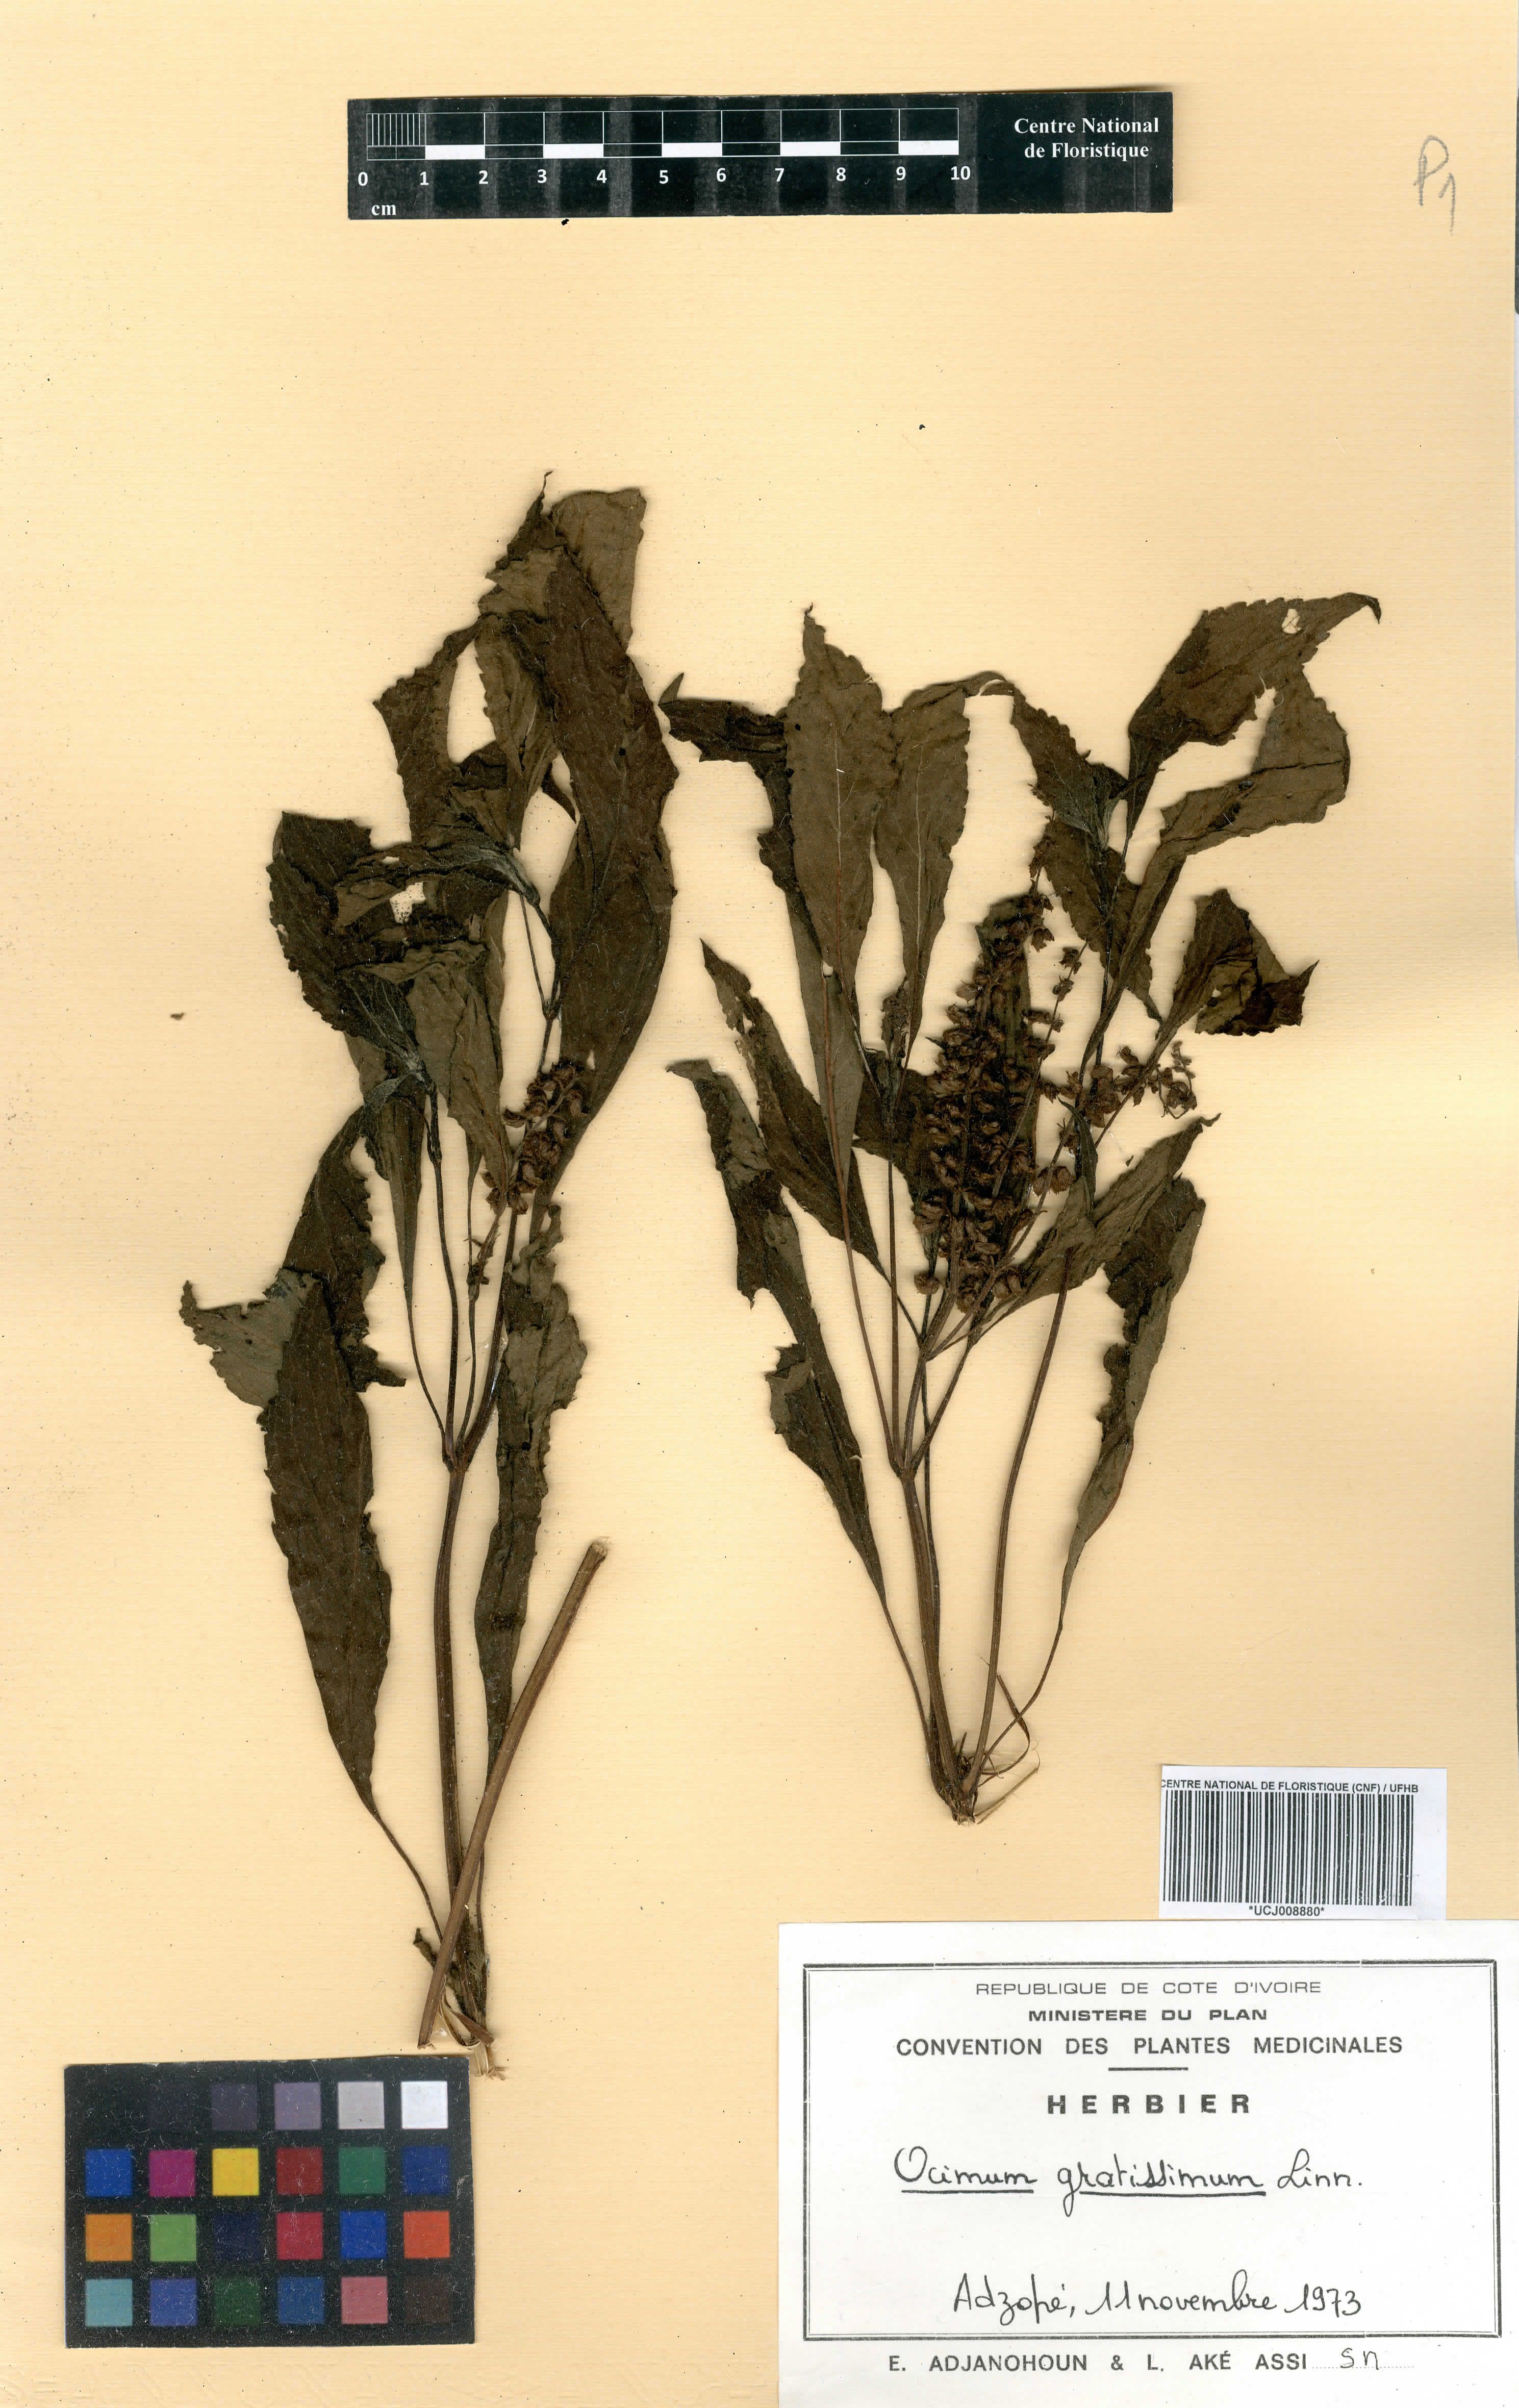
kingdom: Plantae
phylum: Tracheophyta
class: Magnoliopsida
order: Lamiales
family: Lamiaceae
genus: Ocimum
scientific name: Ocimum gratissimum
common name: African basil
